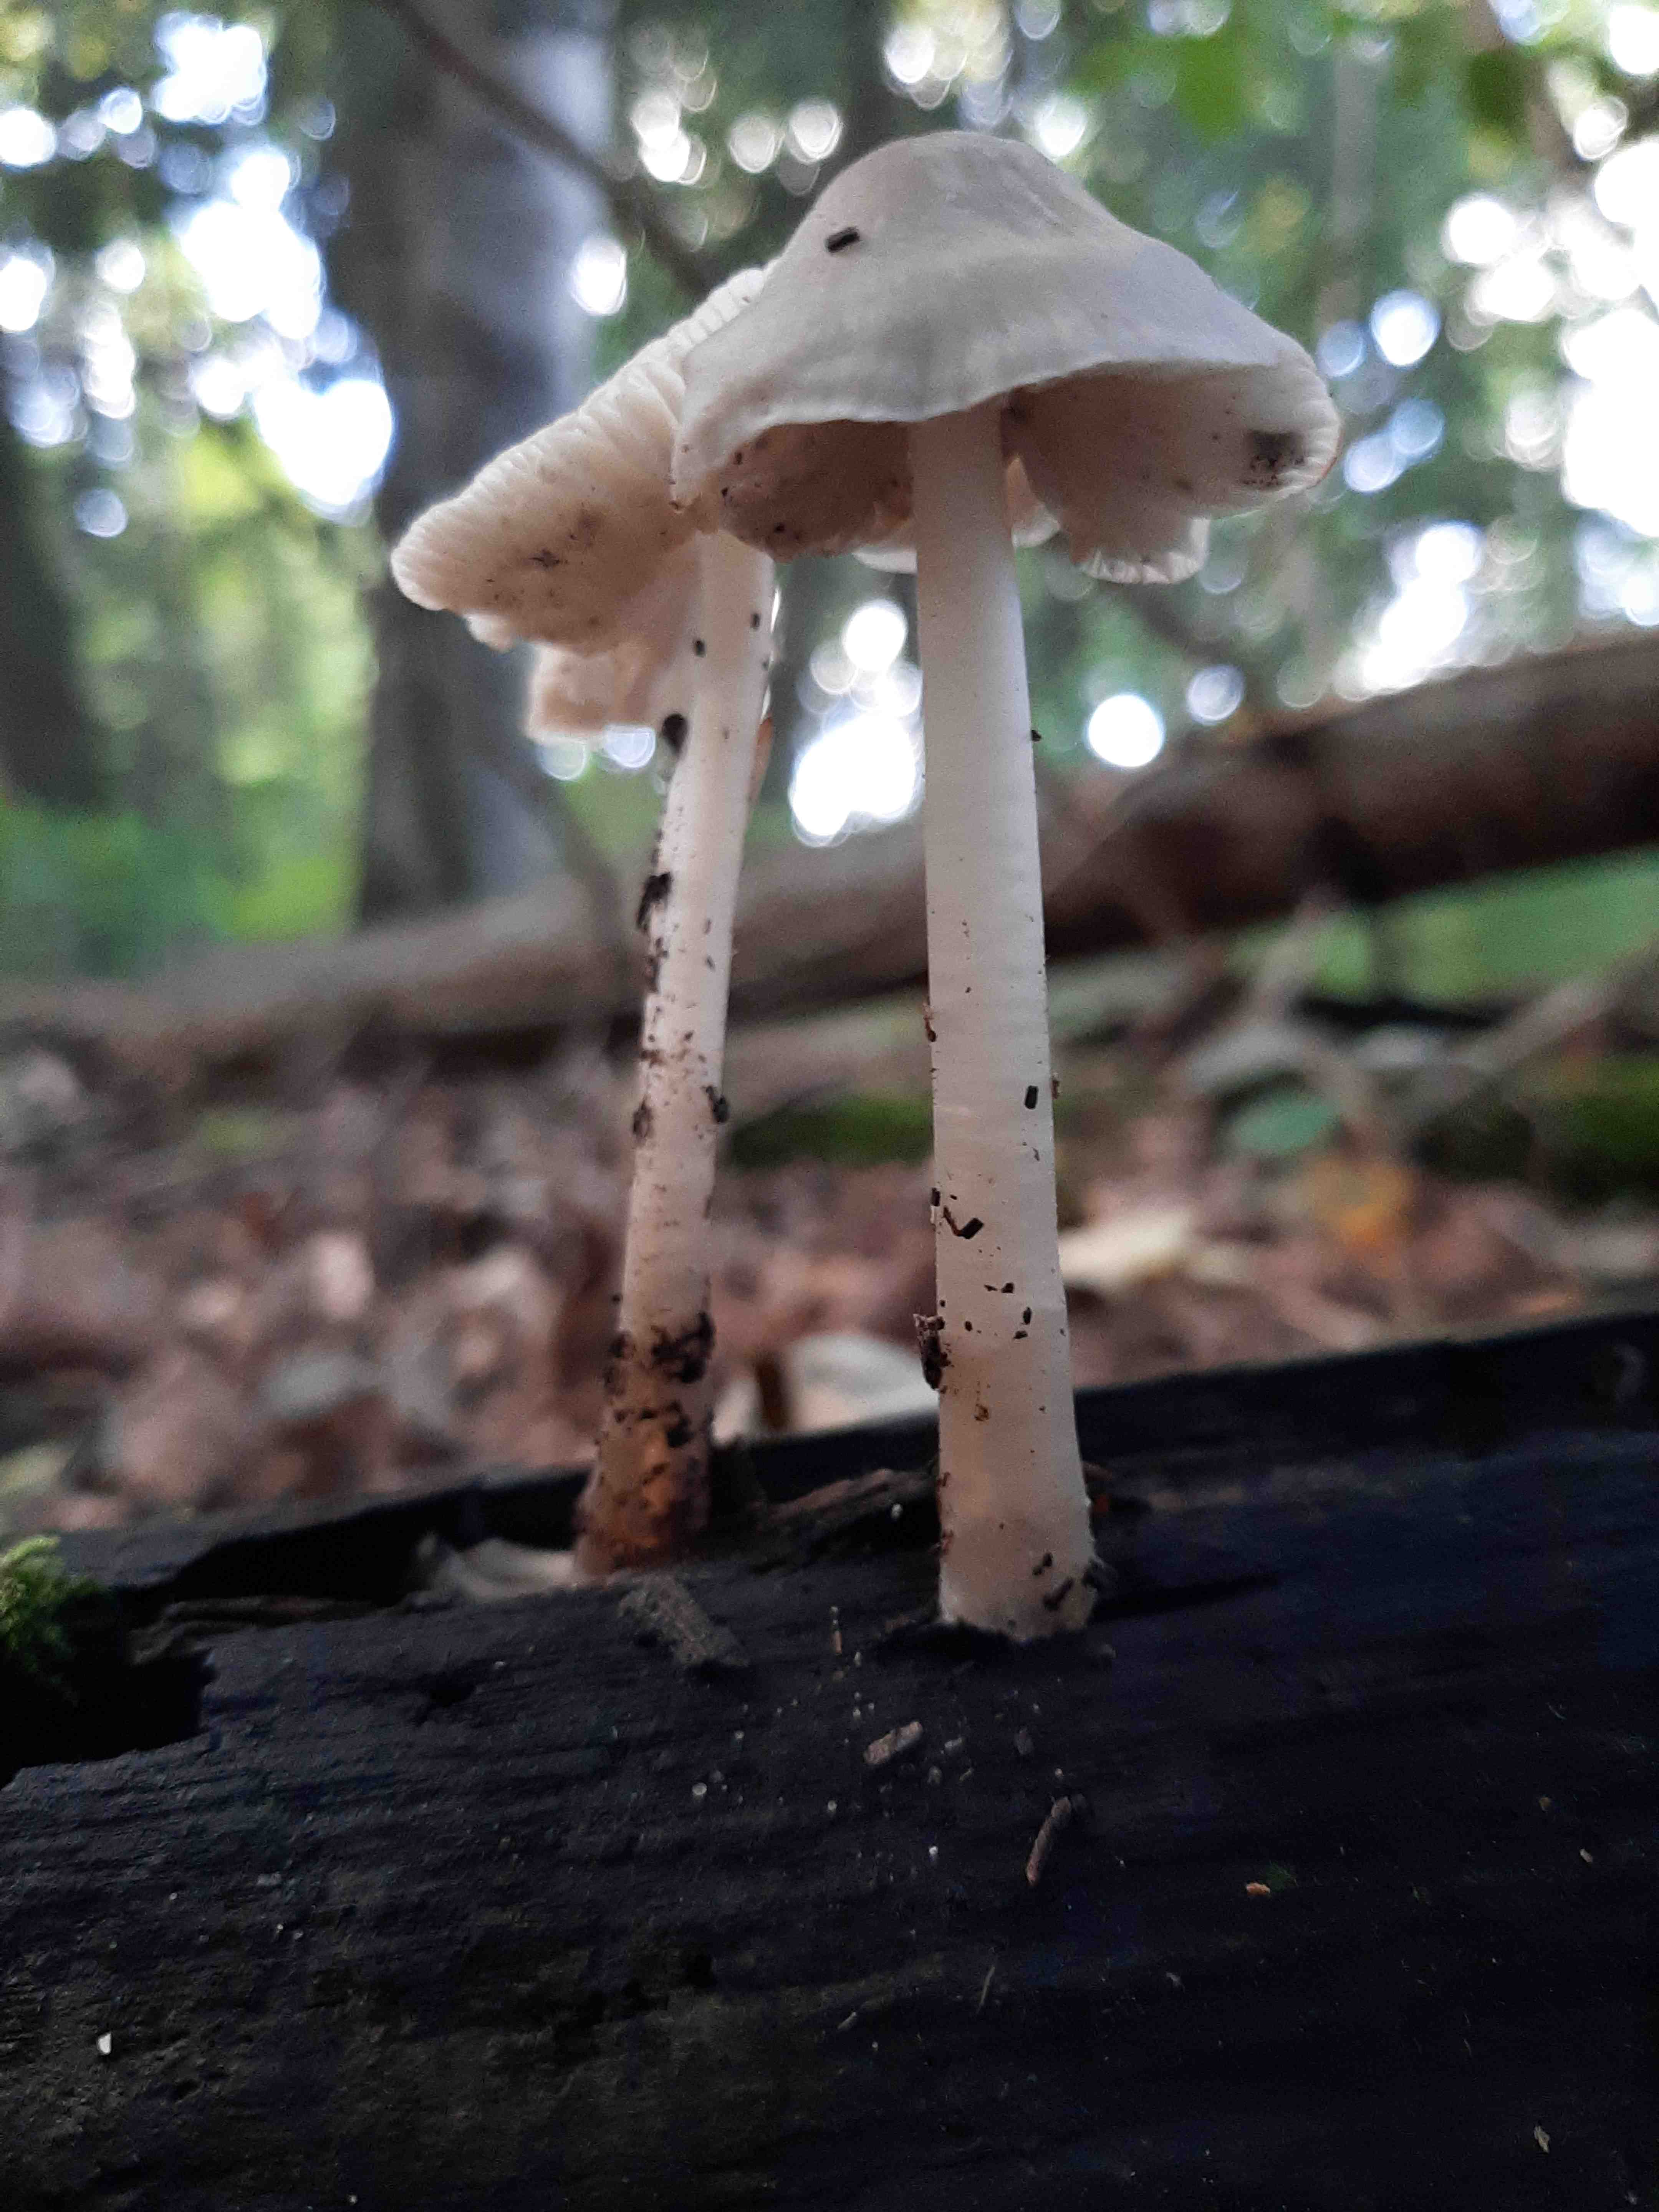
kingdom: Fungi
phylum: Basidiomycota
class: Agaricomycetes
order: Agaricales
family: Mycenaceae
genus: Mycena
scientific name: Mycena galericulata
